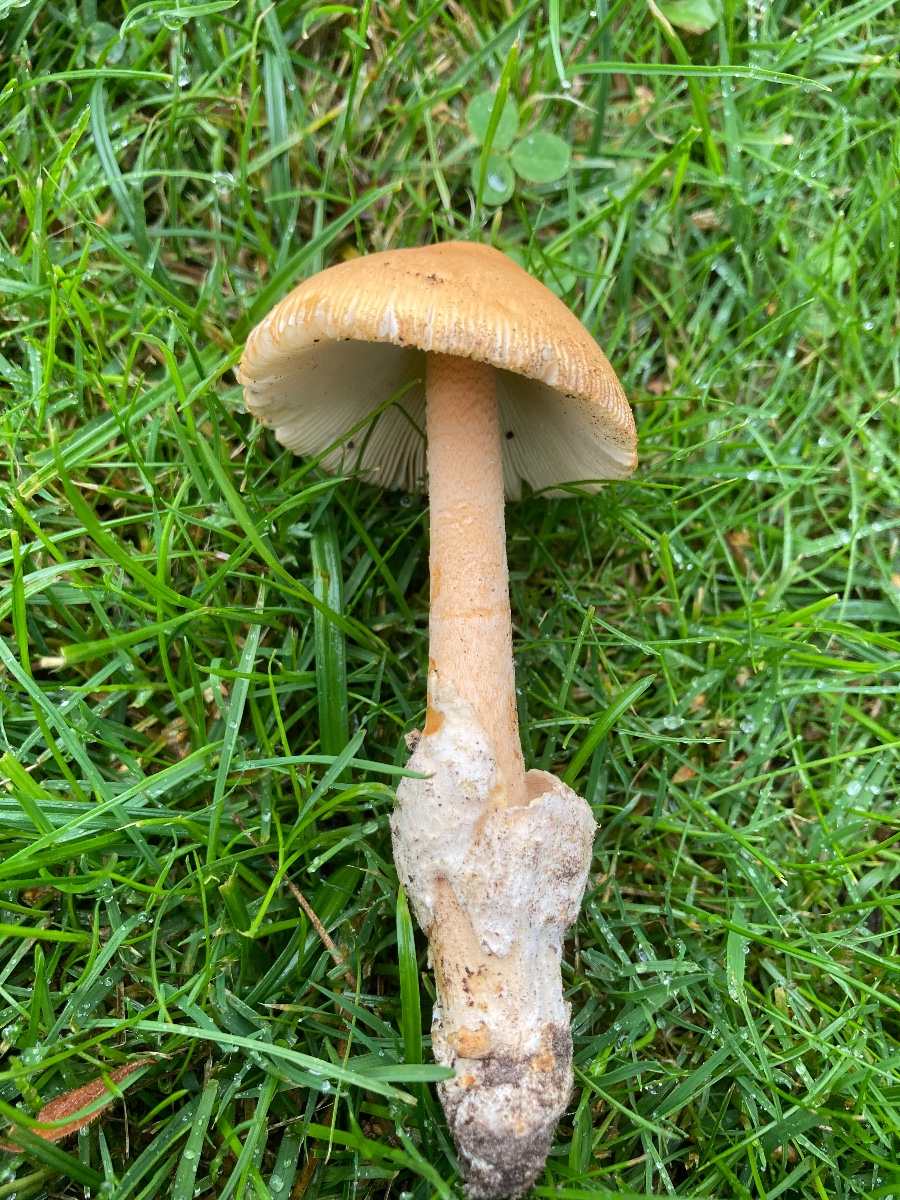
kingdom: Fungi
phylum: Basidiomycota
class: Agaricomycetes
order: Agaricales
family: Amanitaceae
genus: Amanita
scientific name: Amanita crocea
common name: gylden kam-fluesvamp
